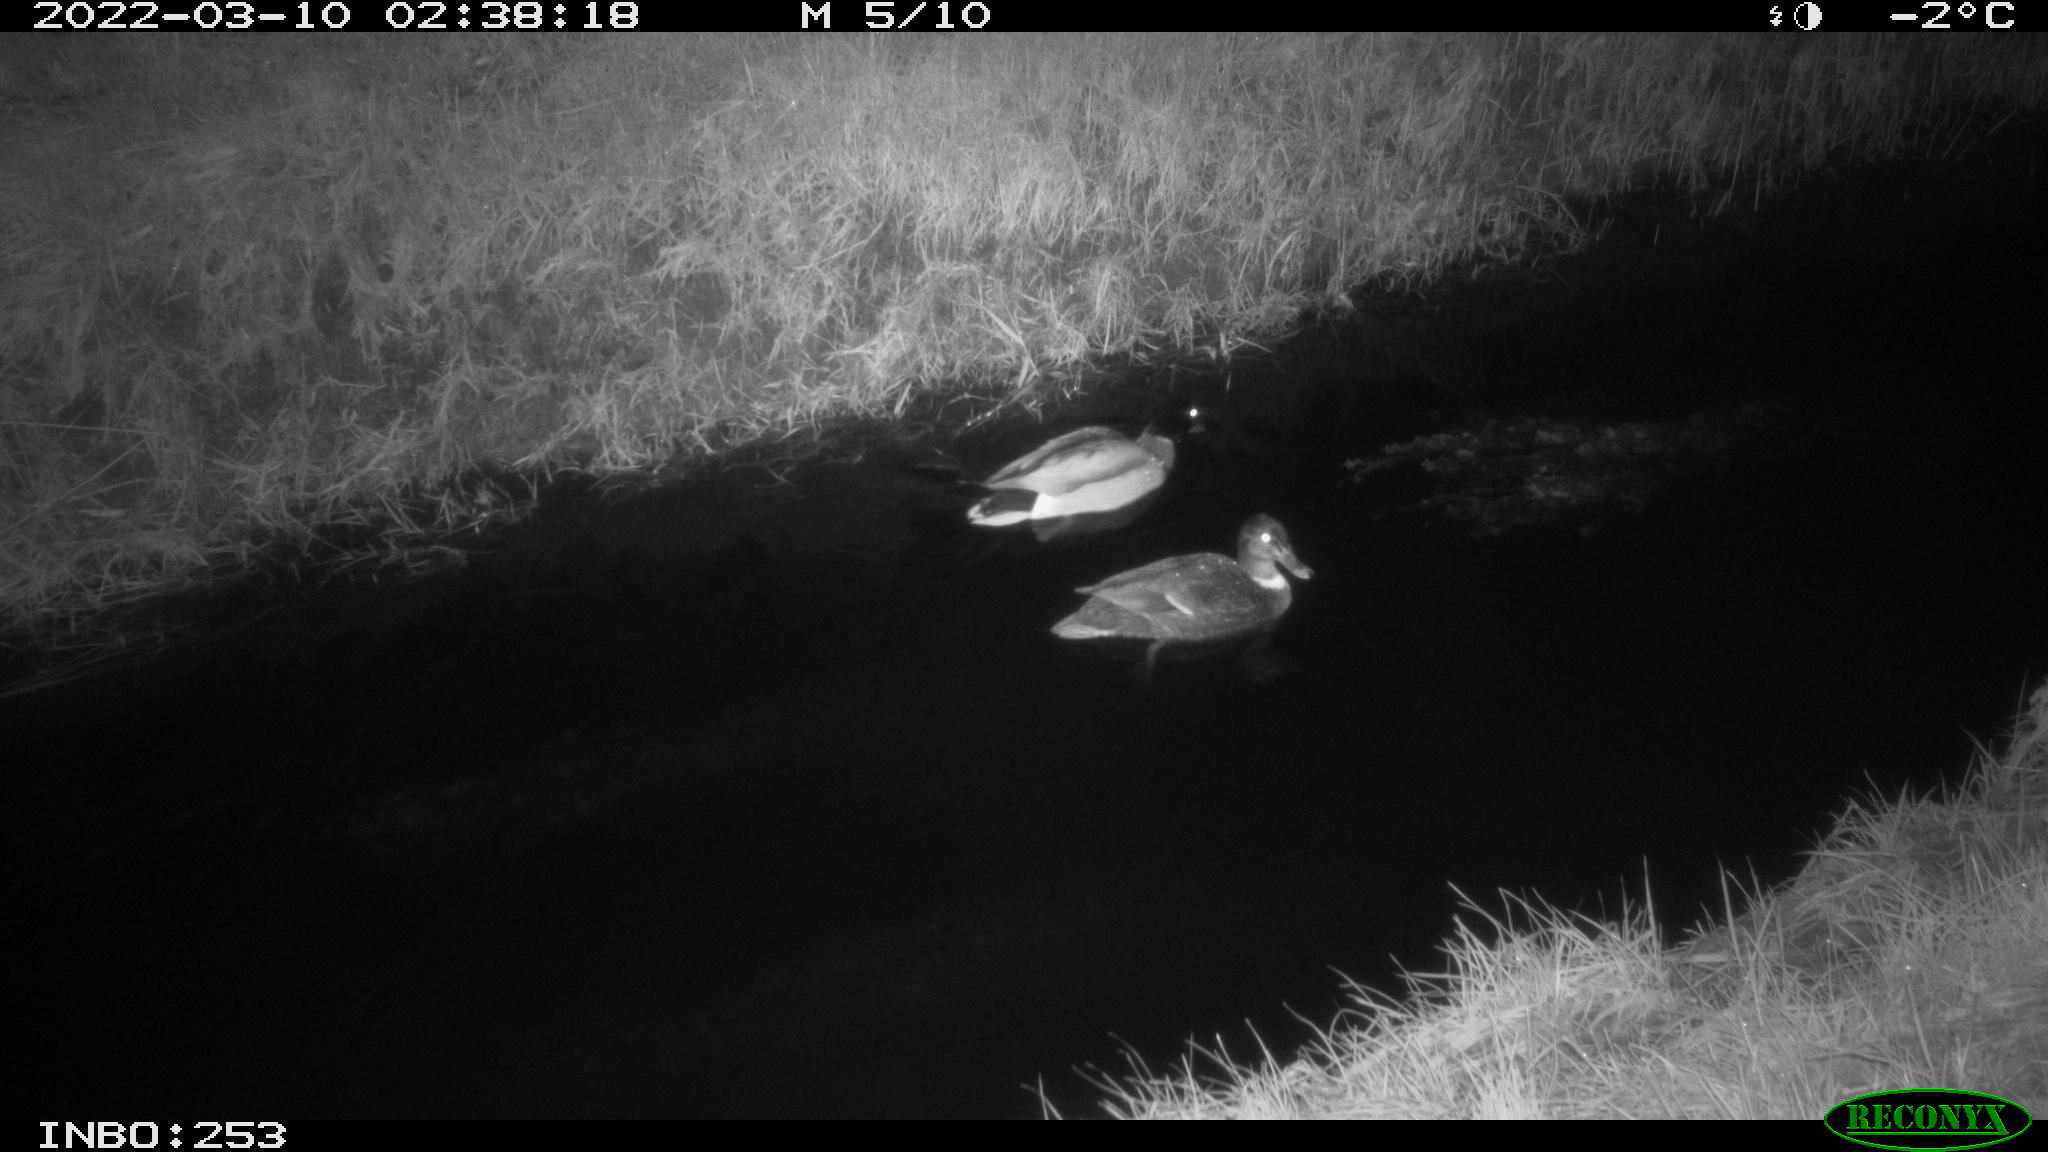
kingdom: Animalia
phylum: Chordata
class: Aves
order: Anseriformes
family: Anatidae
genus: Anas
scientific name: Anas platyrhynchos
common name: Mallard
